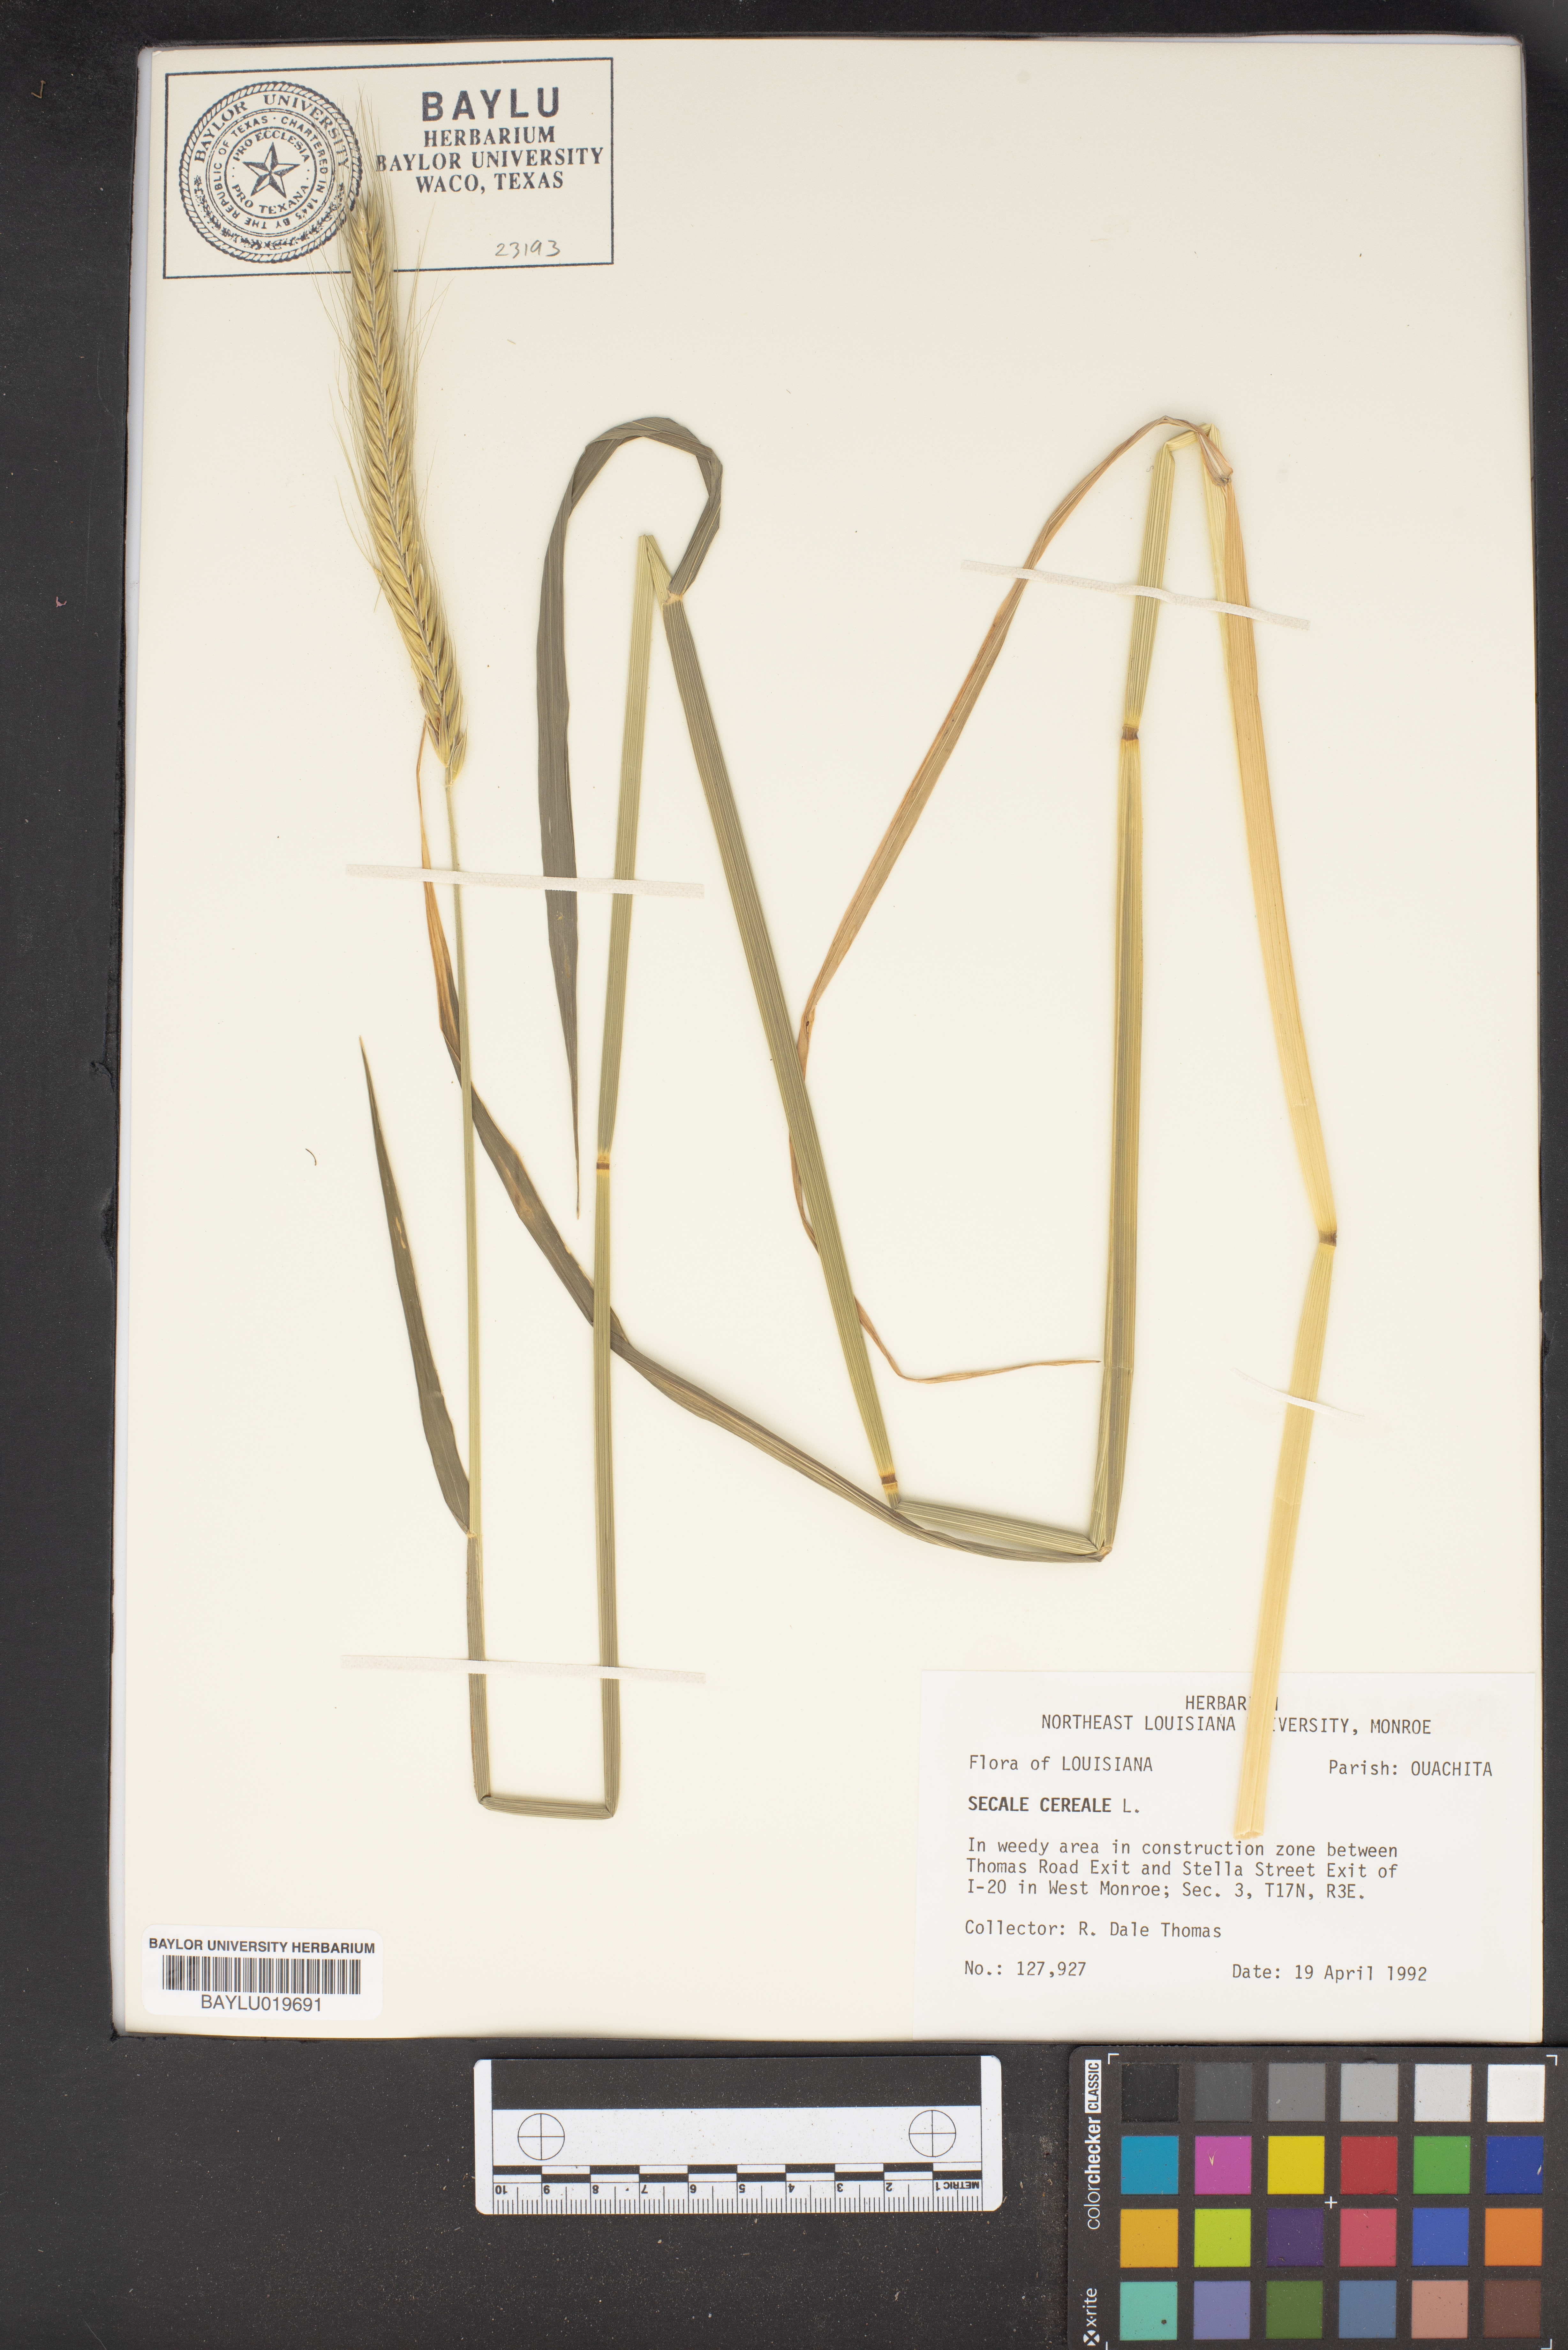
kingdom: Plantae
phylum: Tracheophyta
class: Liliopsida
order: Poales
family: Poaceae
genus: Secale
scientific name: Secale cereale
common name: Rye
